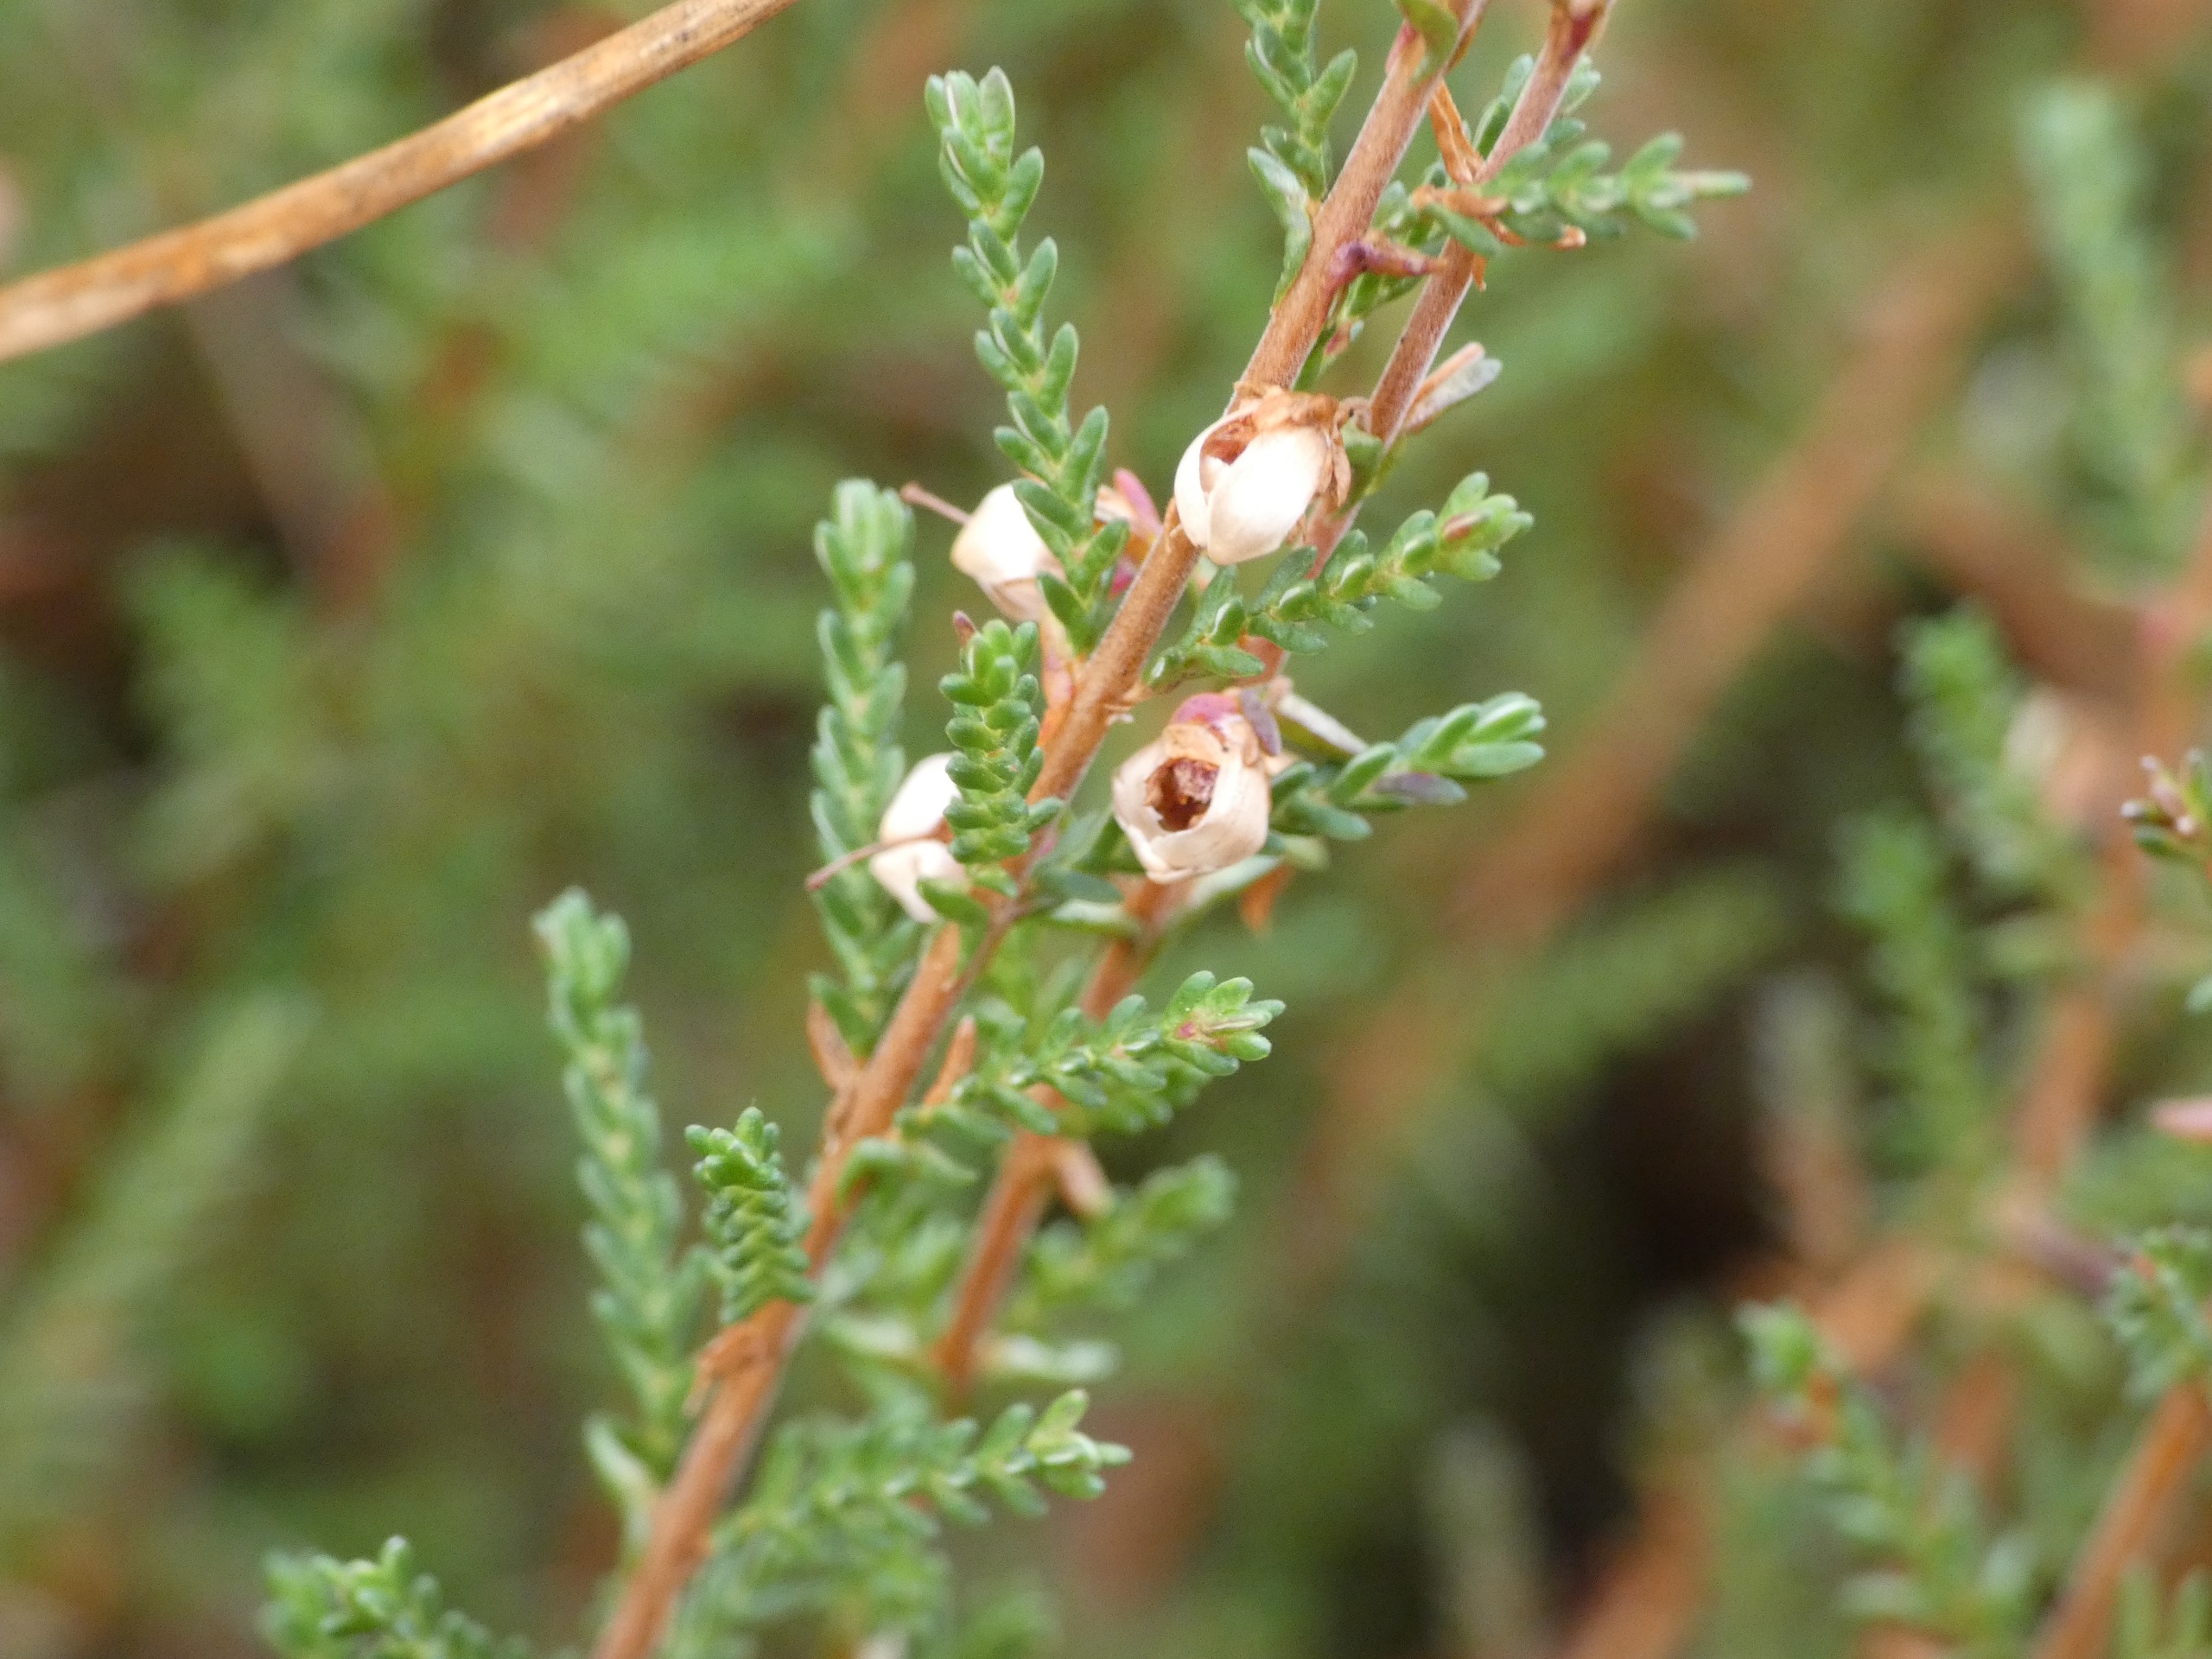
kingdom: Plantae
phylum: Tracheophyta
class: Magnoliopsida
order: Ericales
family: Ericaceae
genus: Calluna
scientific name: Calluna vulgaris
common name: Hedelyng
